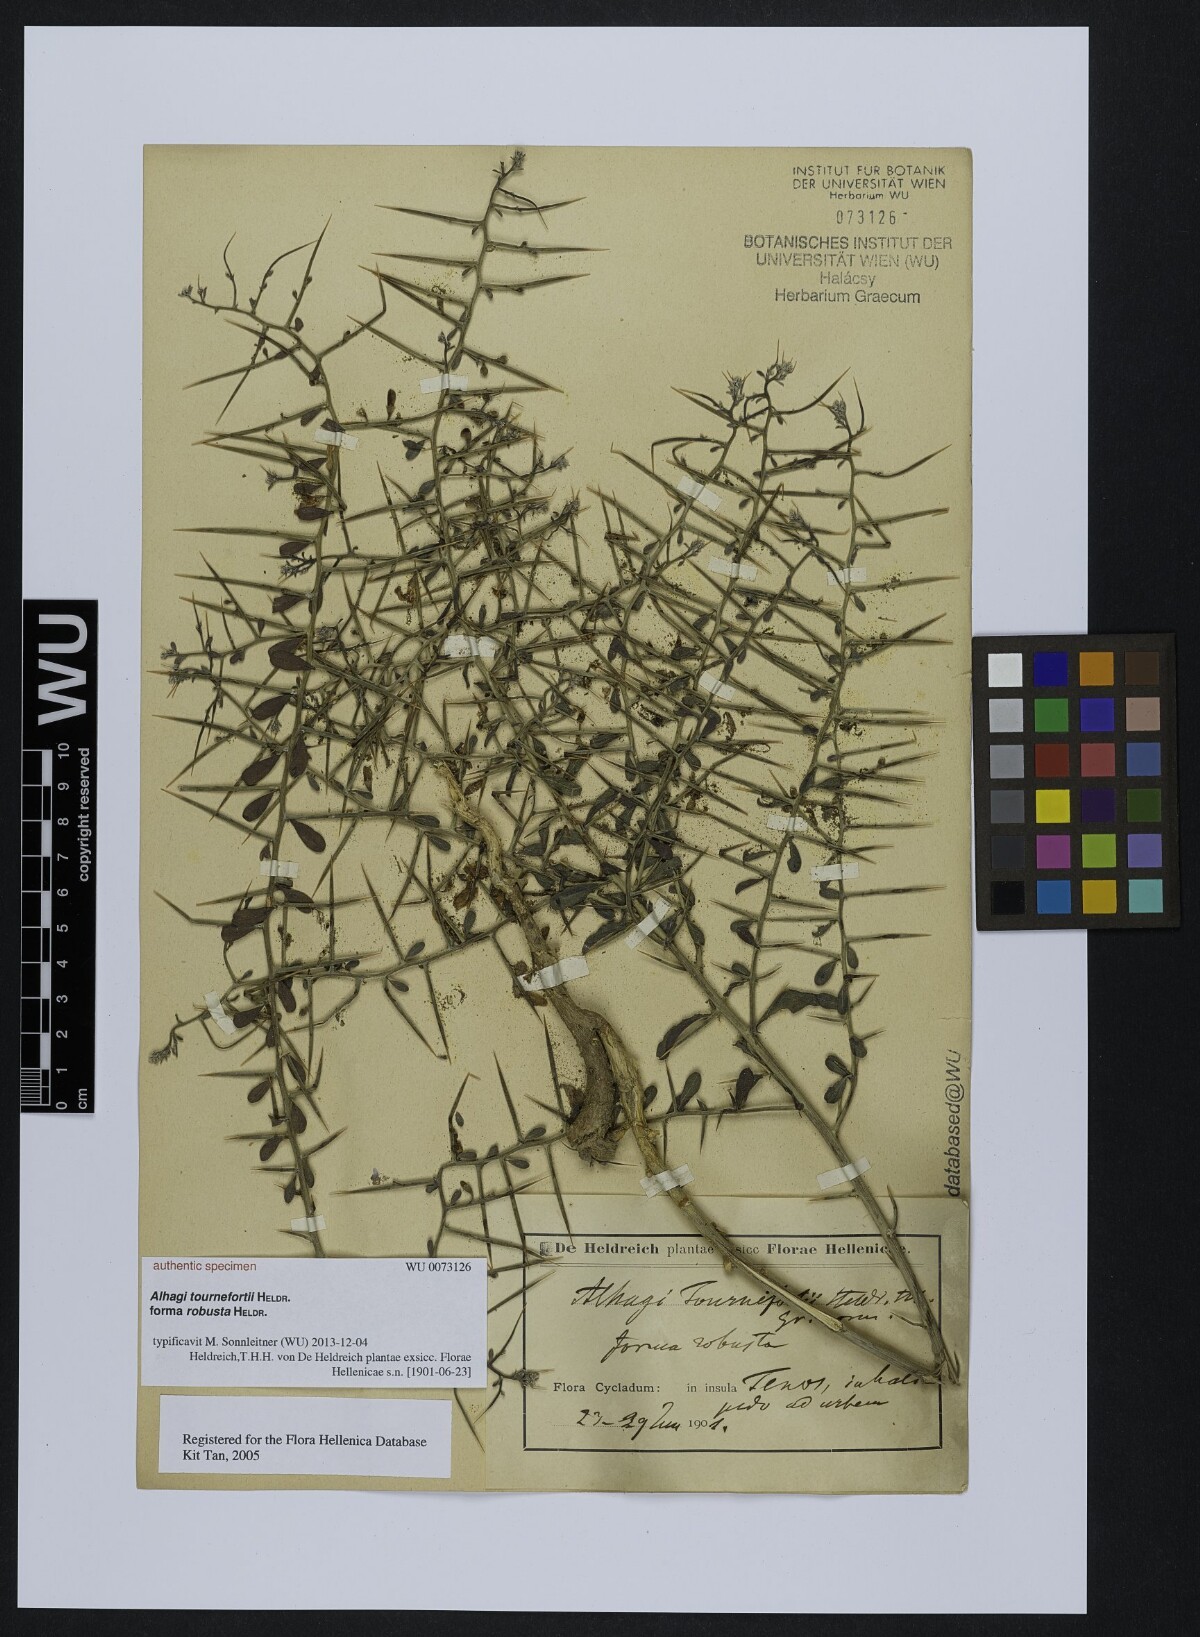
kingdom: Plantae
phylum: Tracheophyta
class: Magnoliopsida
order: Fabales
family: Fabaceae
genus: Alhagi
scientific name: Alhagi graecorum
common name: Persian mannaplant
